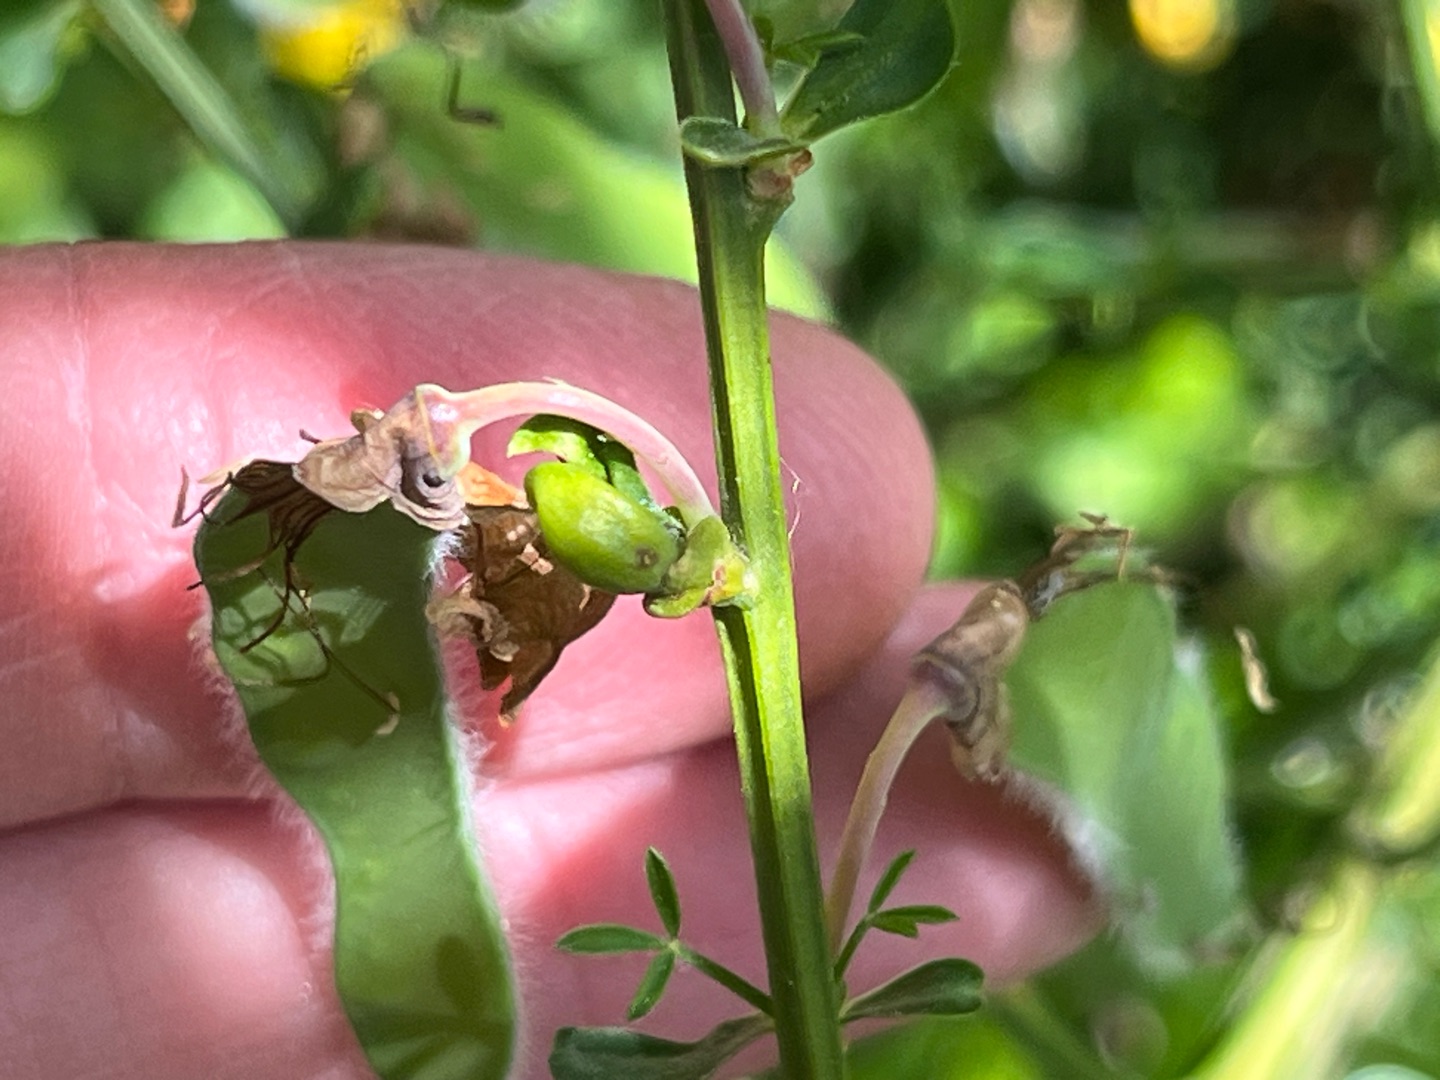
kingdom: Animalia
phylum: Arthropoda
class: Insecta
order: Diptera
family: Cecidomyiidae
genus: Asphondylia
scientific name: Asphondylia sarothamni
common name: Gyvelmycelgalmyg
